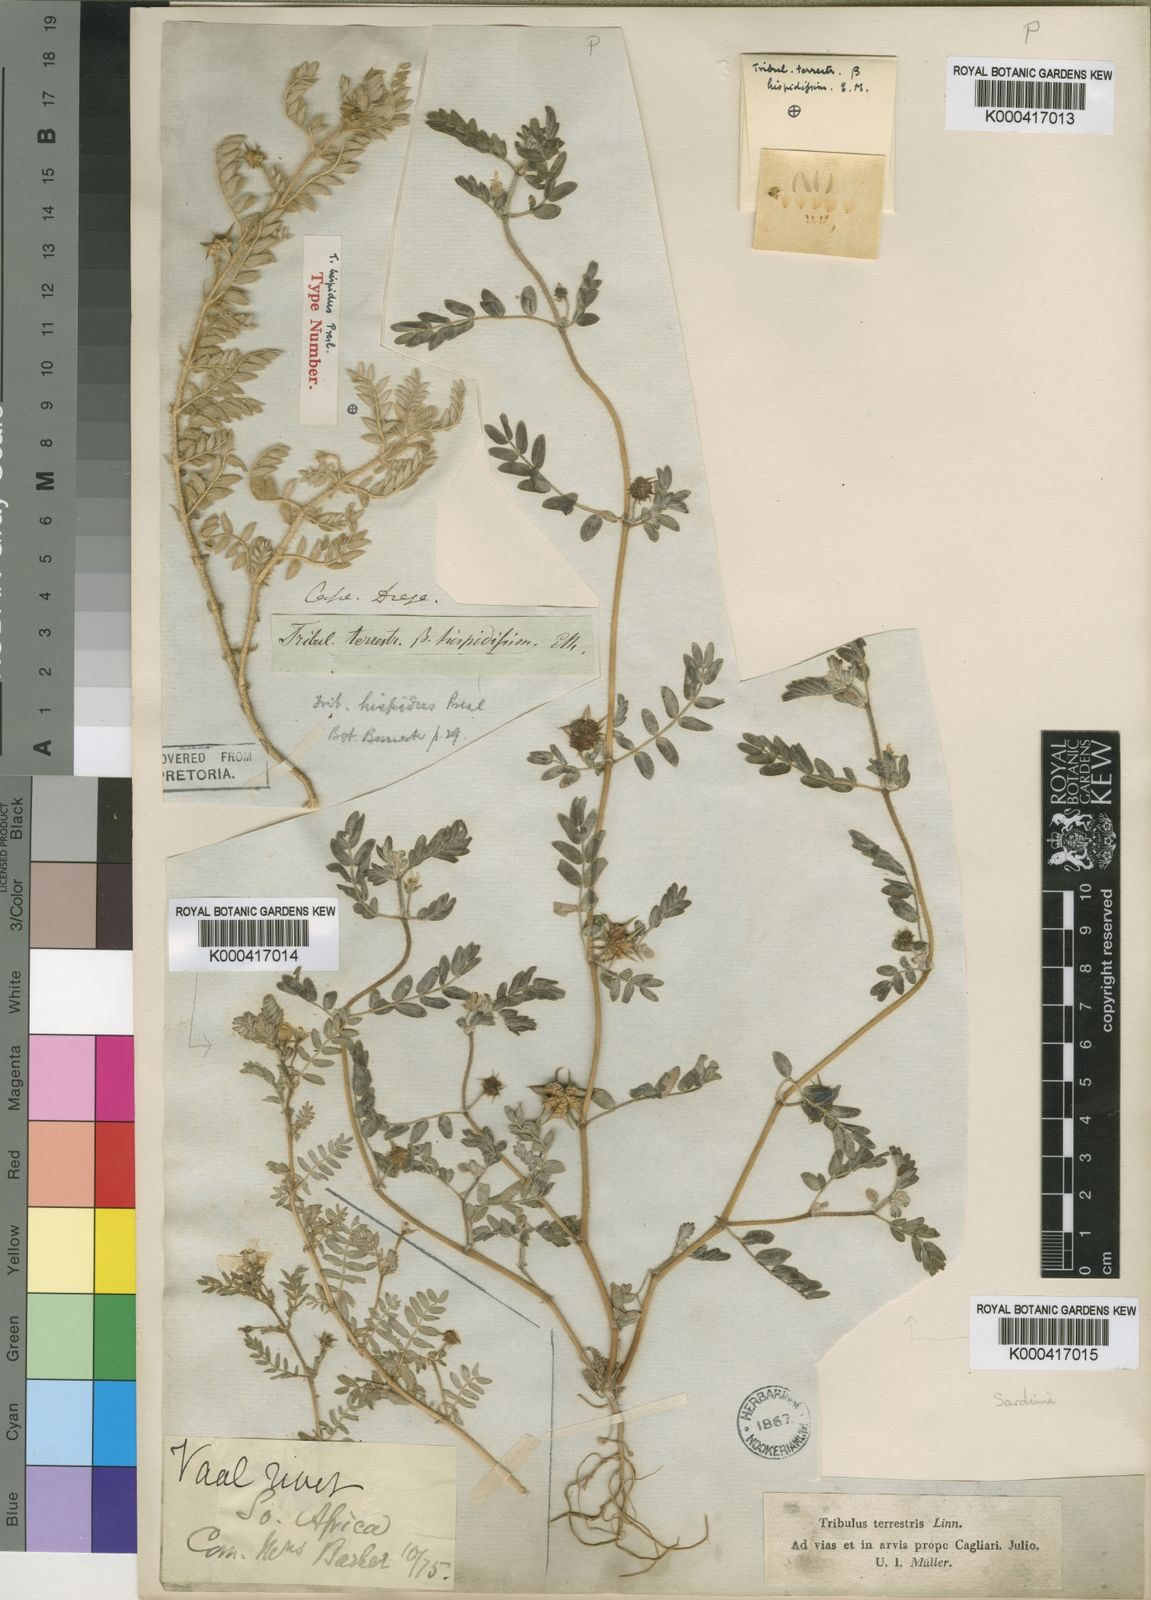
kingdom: Plantae
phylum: Tracheophyta
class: Magnoliopsida
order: Zygophyllales
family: Zygophyllaceae
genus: Tribulus
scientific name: Tribulus terrestris
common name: Puncturevine
